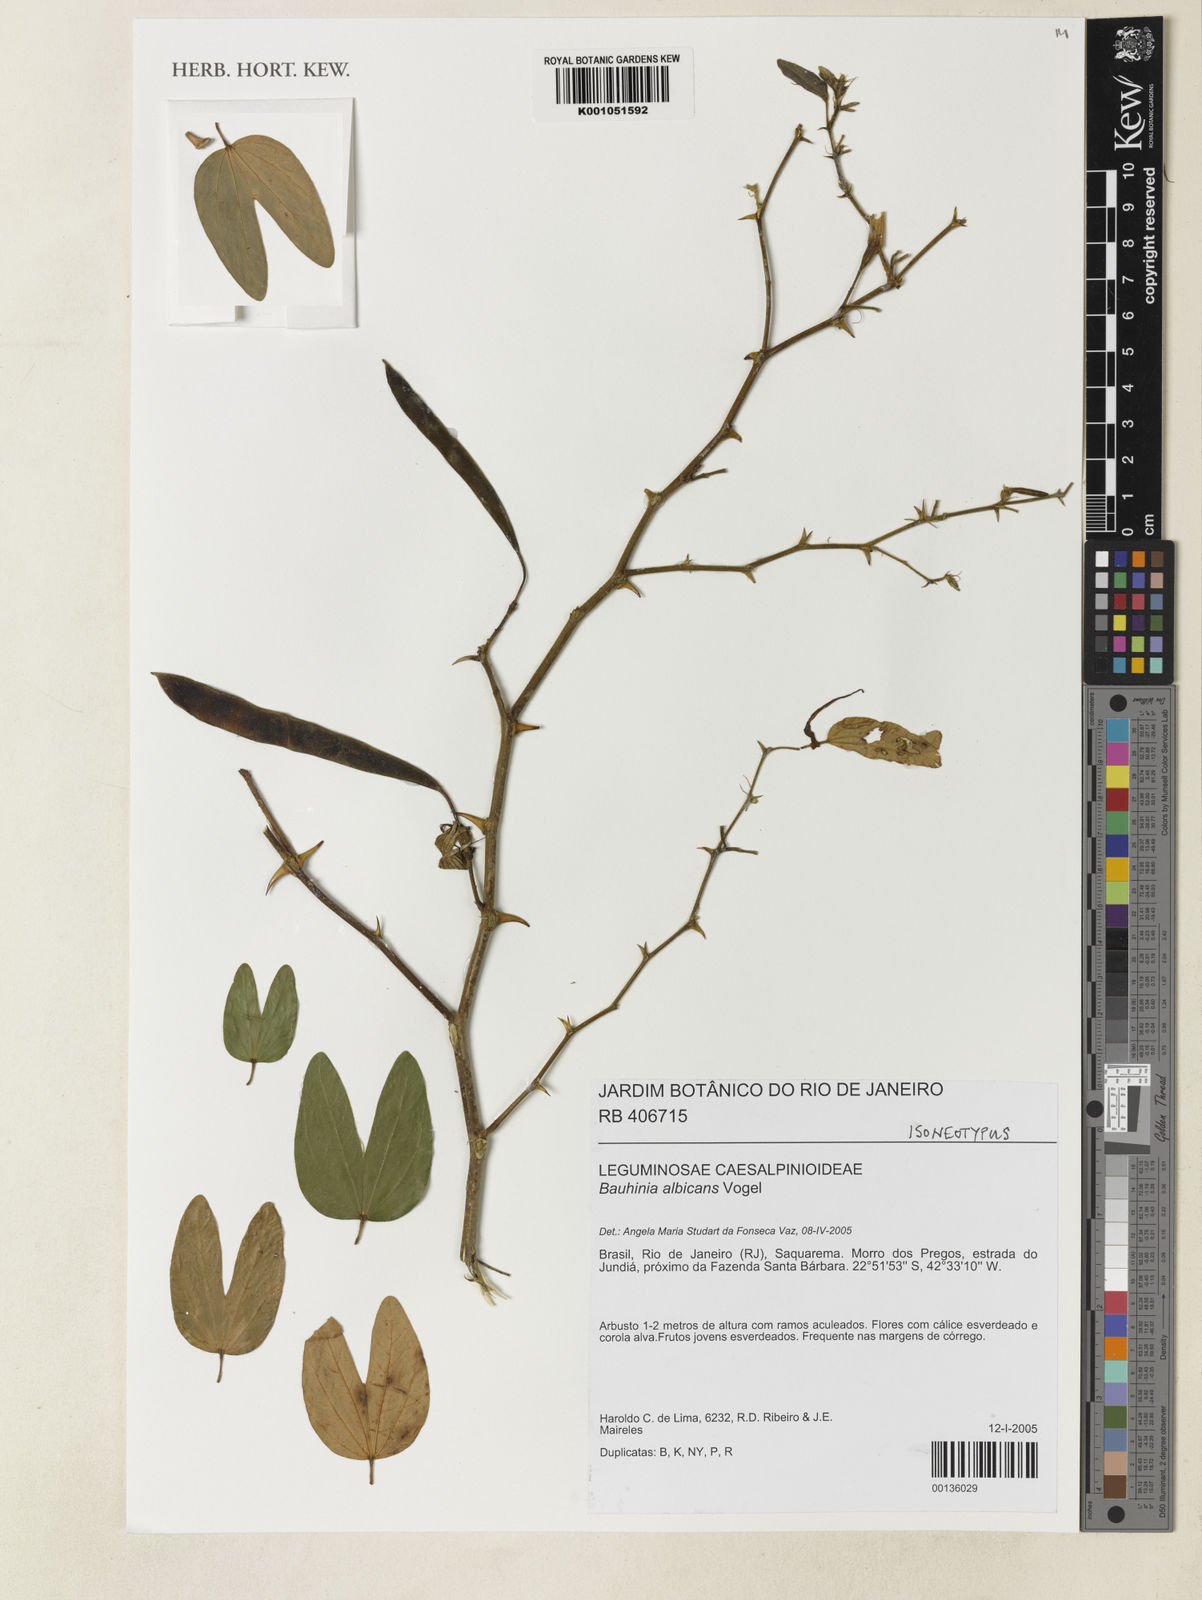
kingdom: Plantae
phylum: Tracheophyta
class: Magnoliopsida
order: Fabales
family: Fabaceae
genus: Bauhinia
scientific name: Bauhinia albicans
